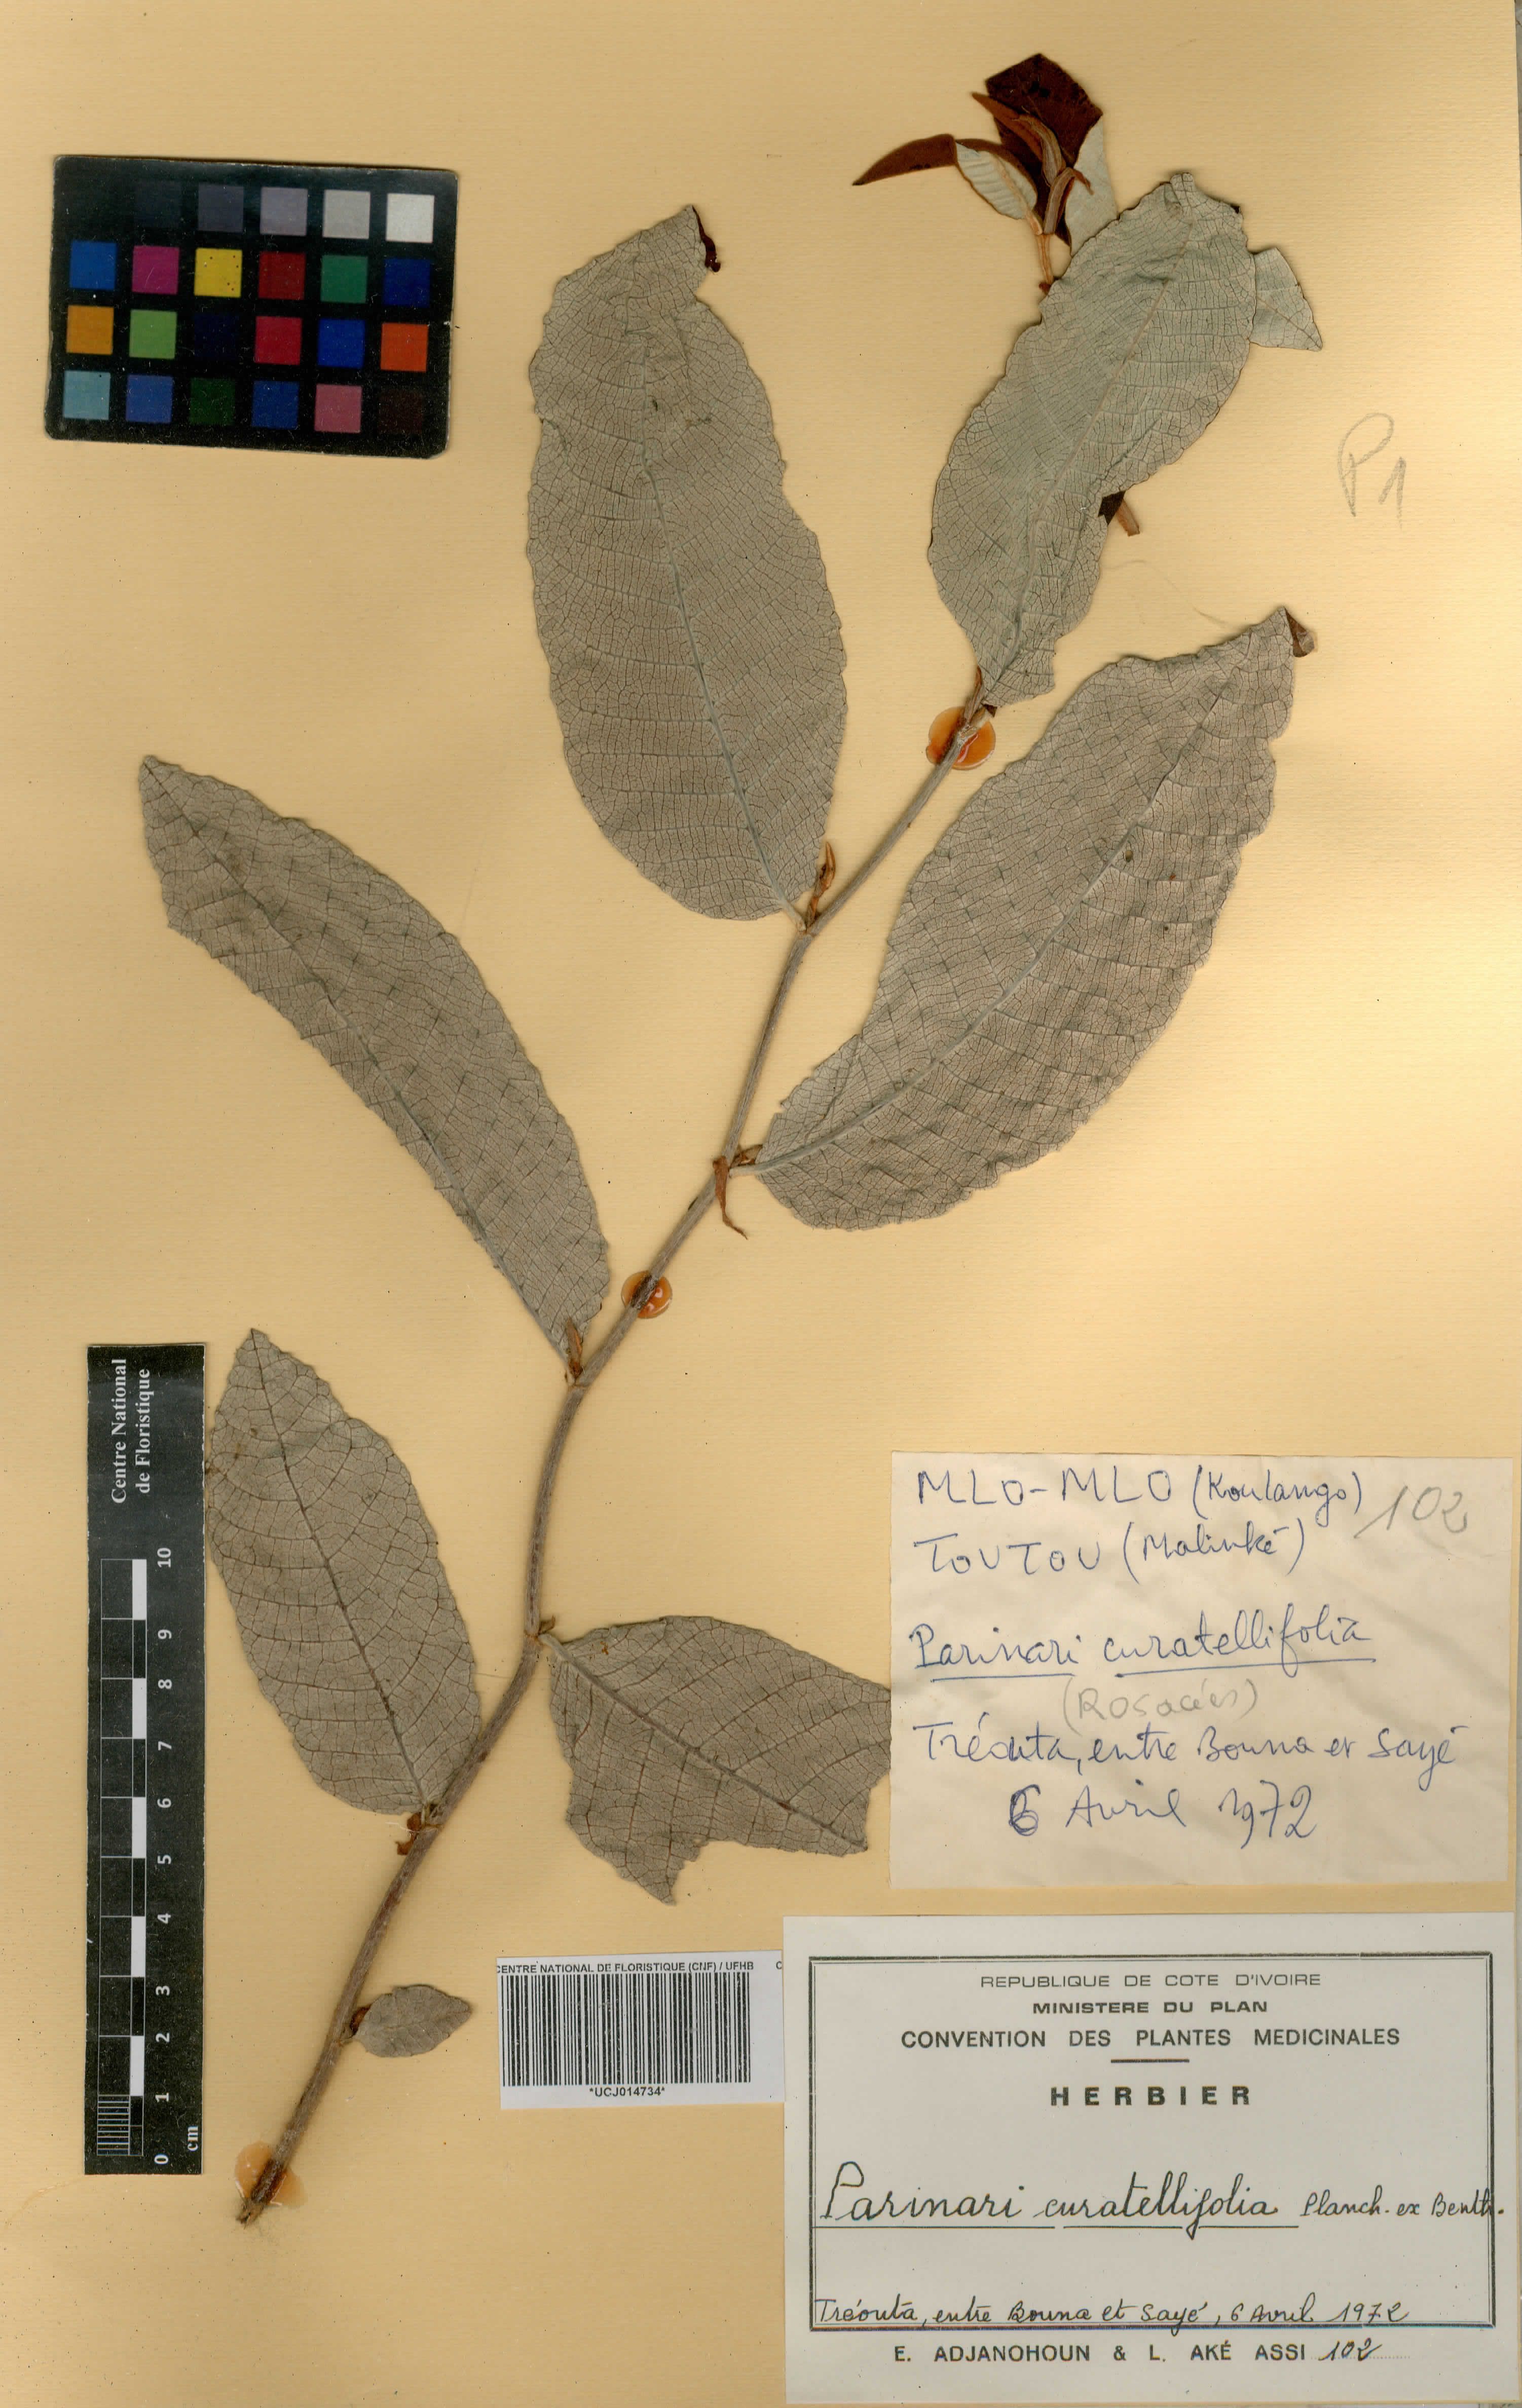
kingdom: Plantae
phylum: Tracheophyta
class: Magnoliopsida
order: Malpighiales
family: Chrysobalanaceae
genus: Parinari
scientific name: Parinari curatellifolia
